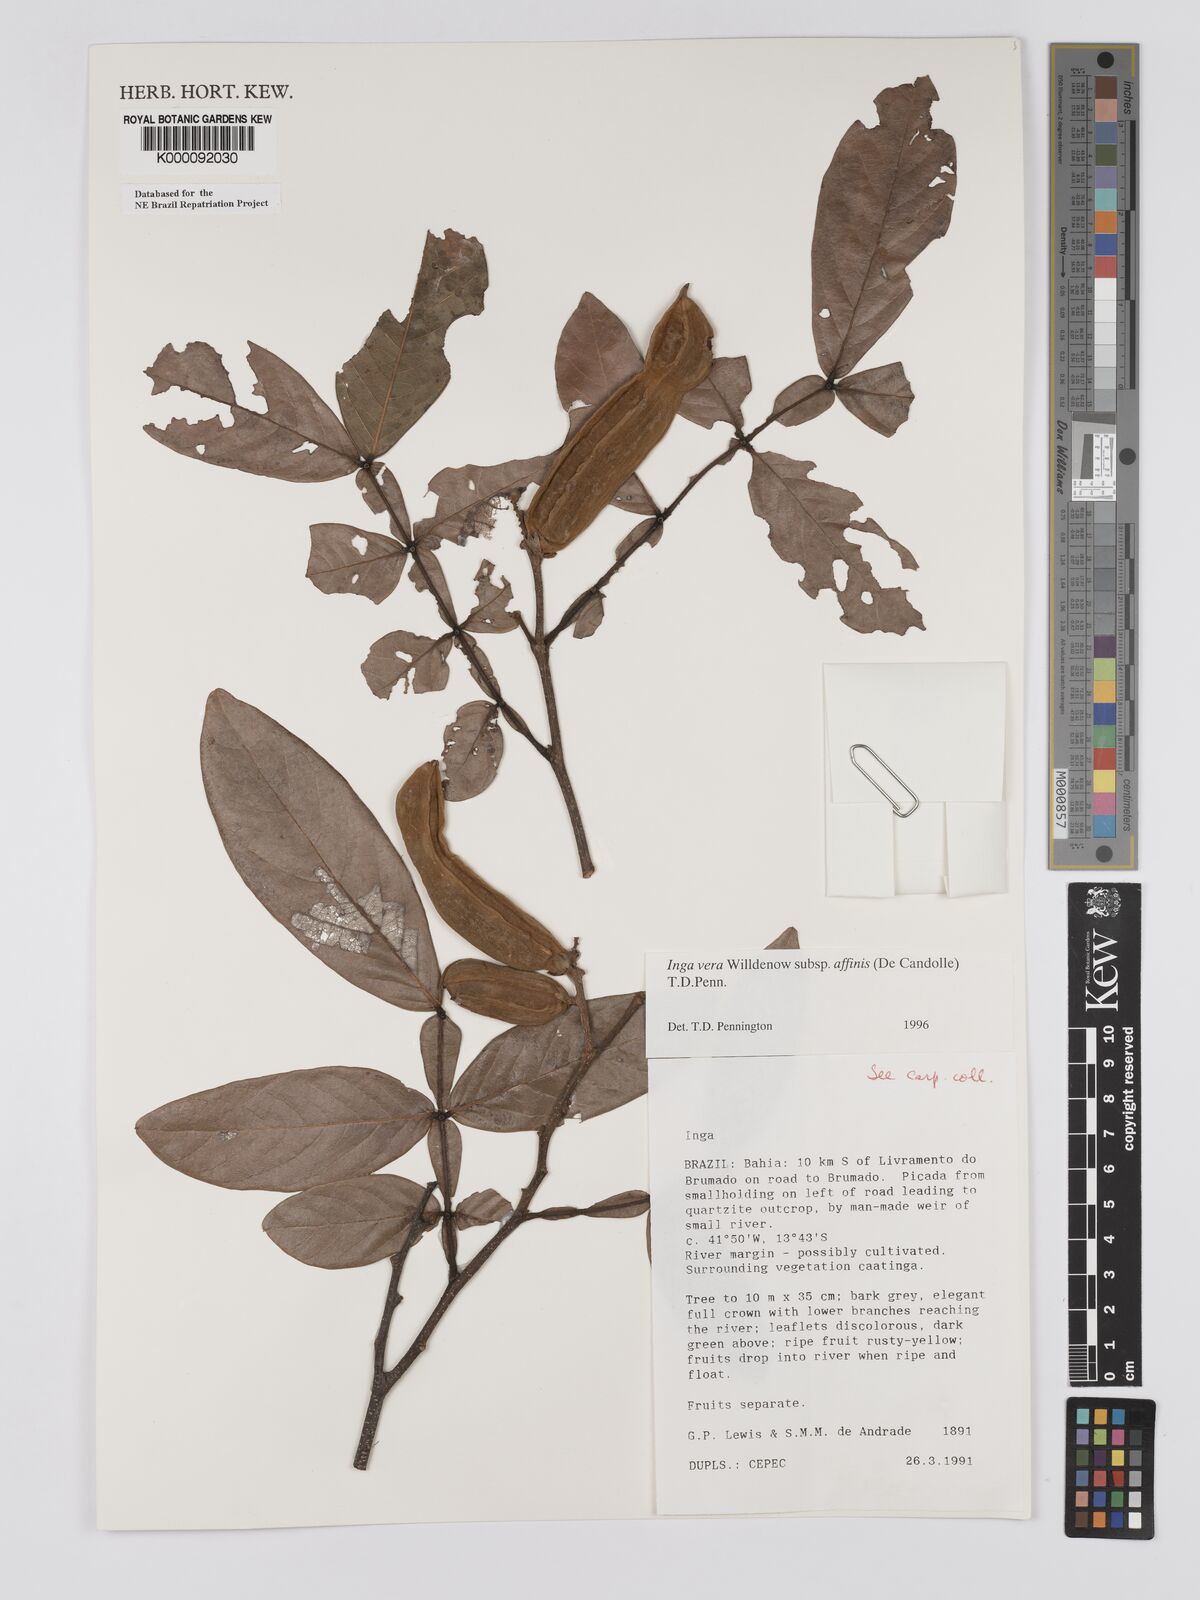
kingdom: Plantae
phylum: Tracheophyta
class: Magnoliopsida
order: Fabales
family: Fabaceae
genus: Inga
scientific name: Inga affinis
